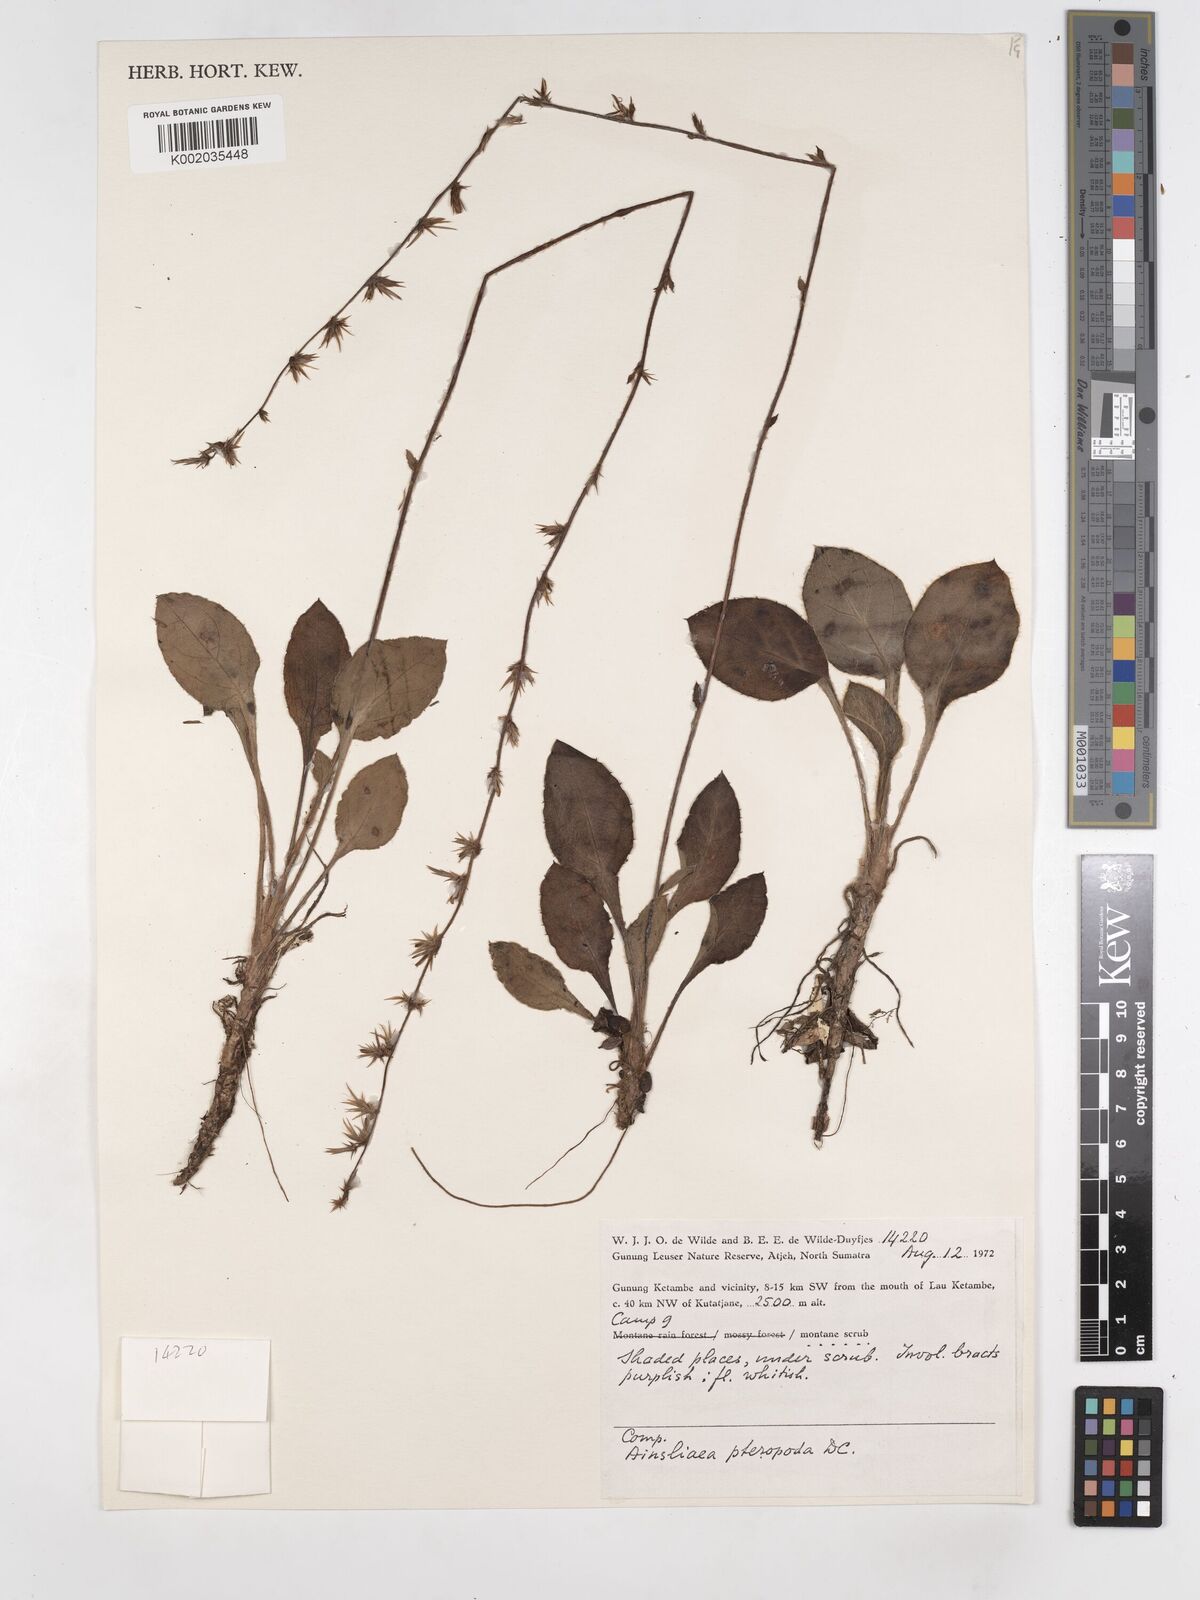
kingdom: Plantae
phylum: Tracheophyta
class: Magnoliopsida
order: Asterales
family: Asteraceae
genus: Ainsliaea
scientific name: Ainsliaea latifolia
